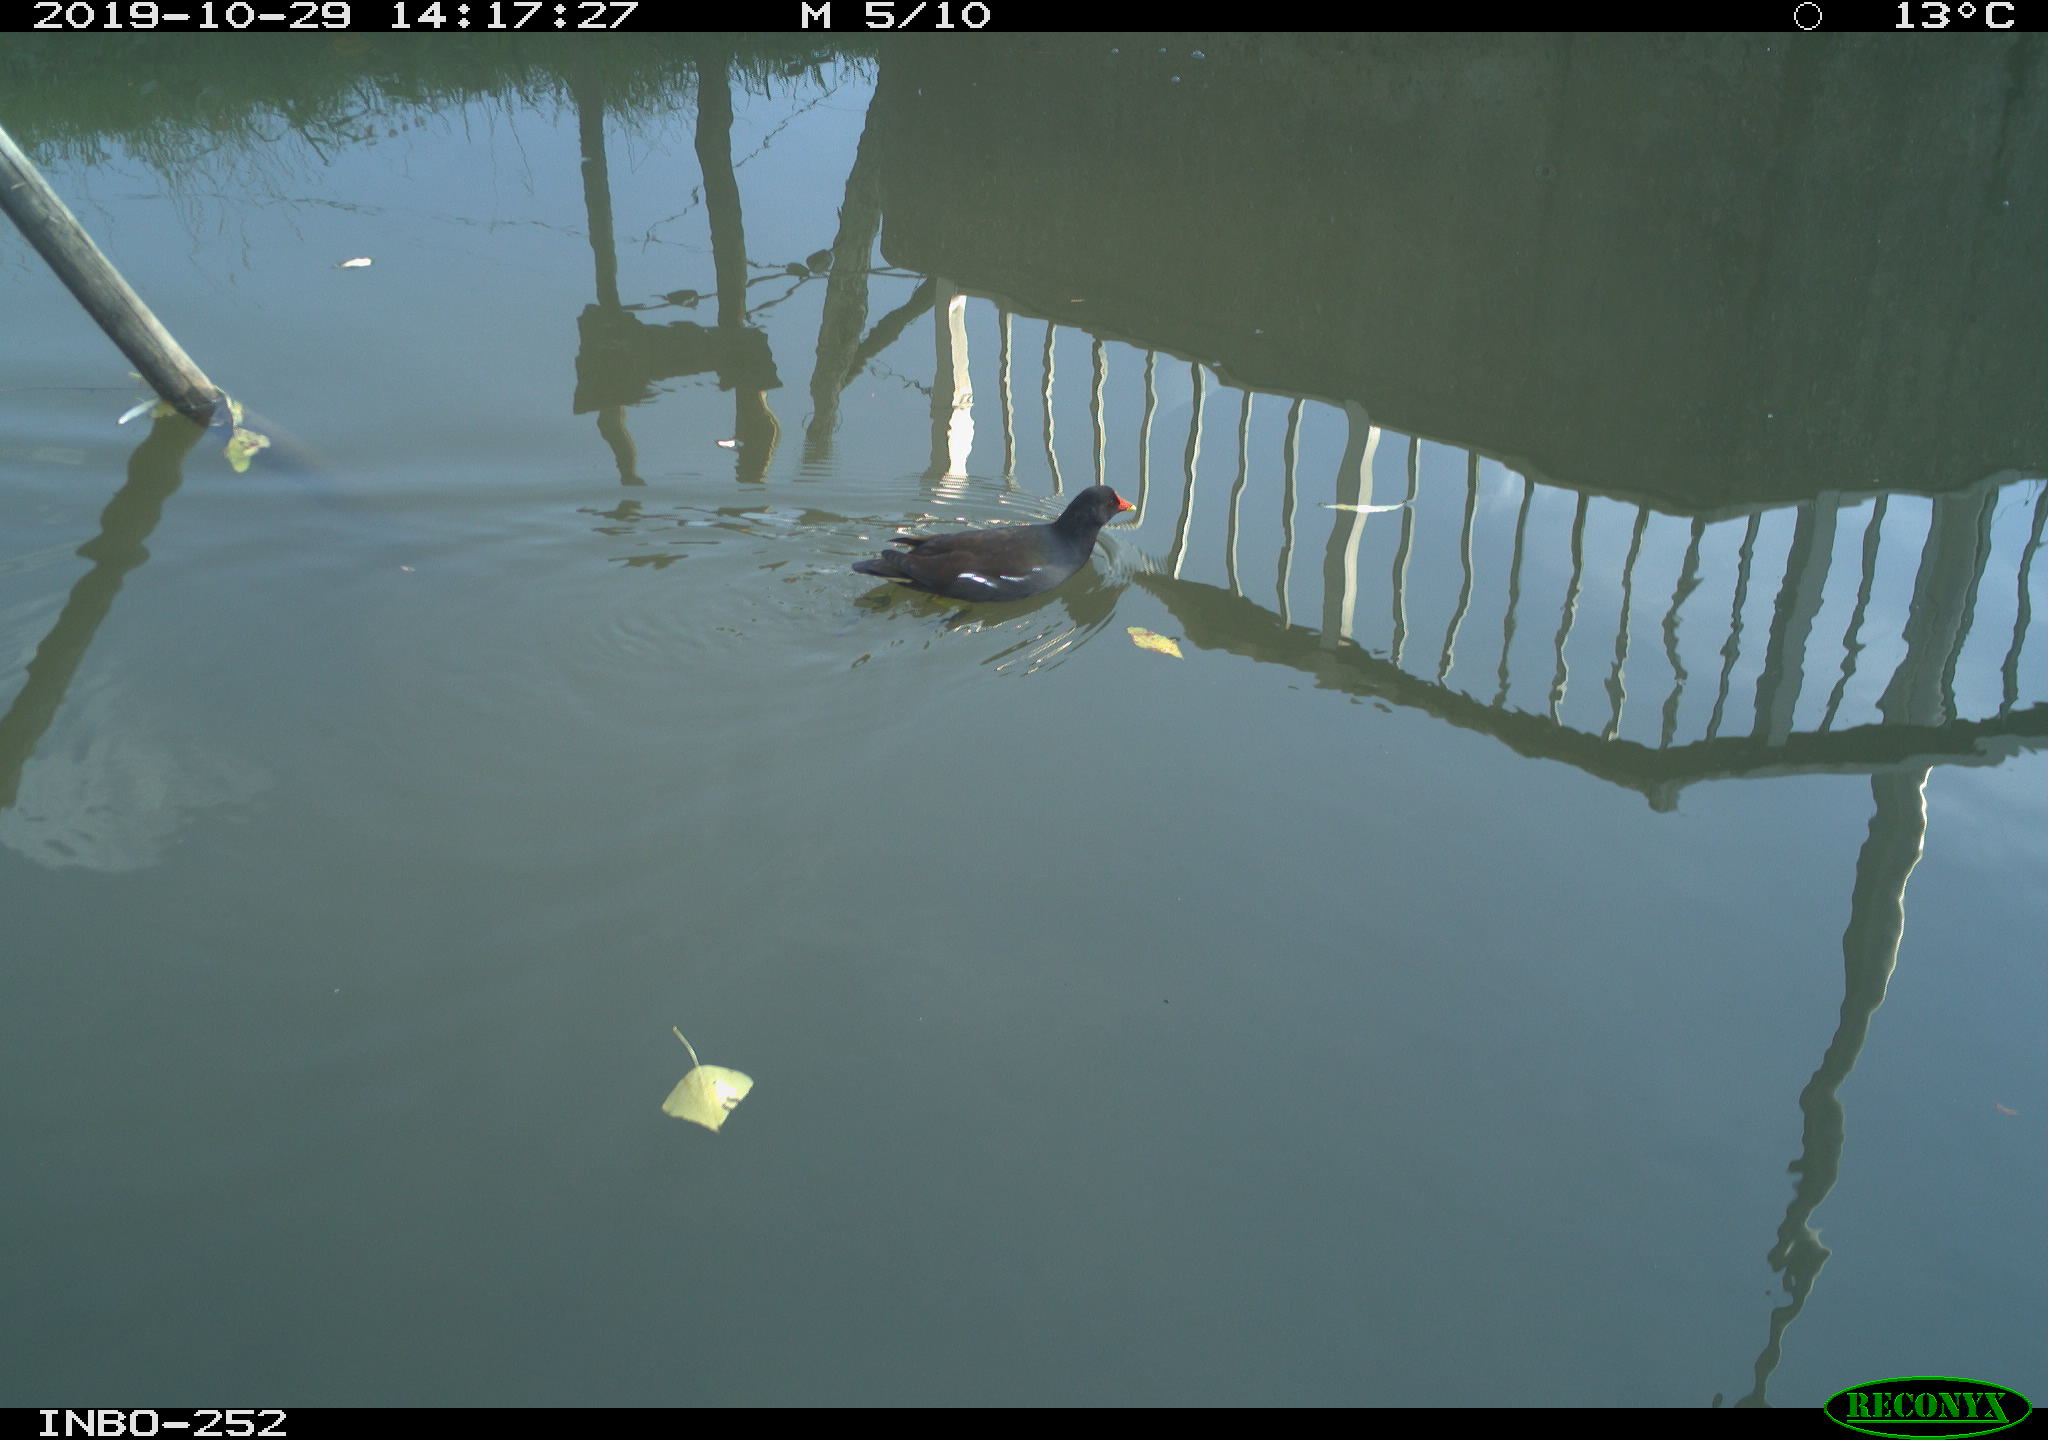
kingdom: Animalia
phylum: Chordata
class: Aves
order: Gruiformes
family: Rallidae
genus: Gallinula
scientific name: Gallinula chloropus
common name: Common moorhen
